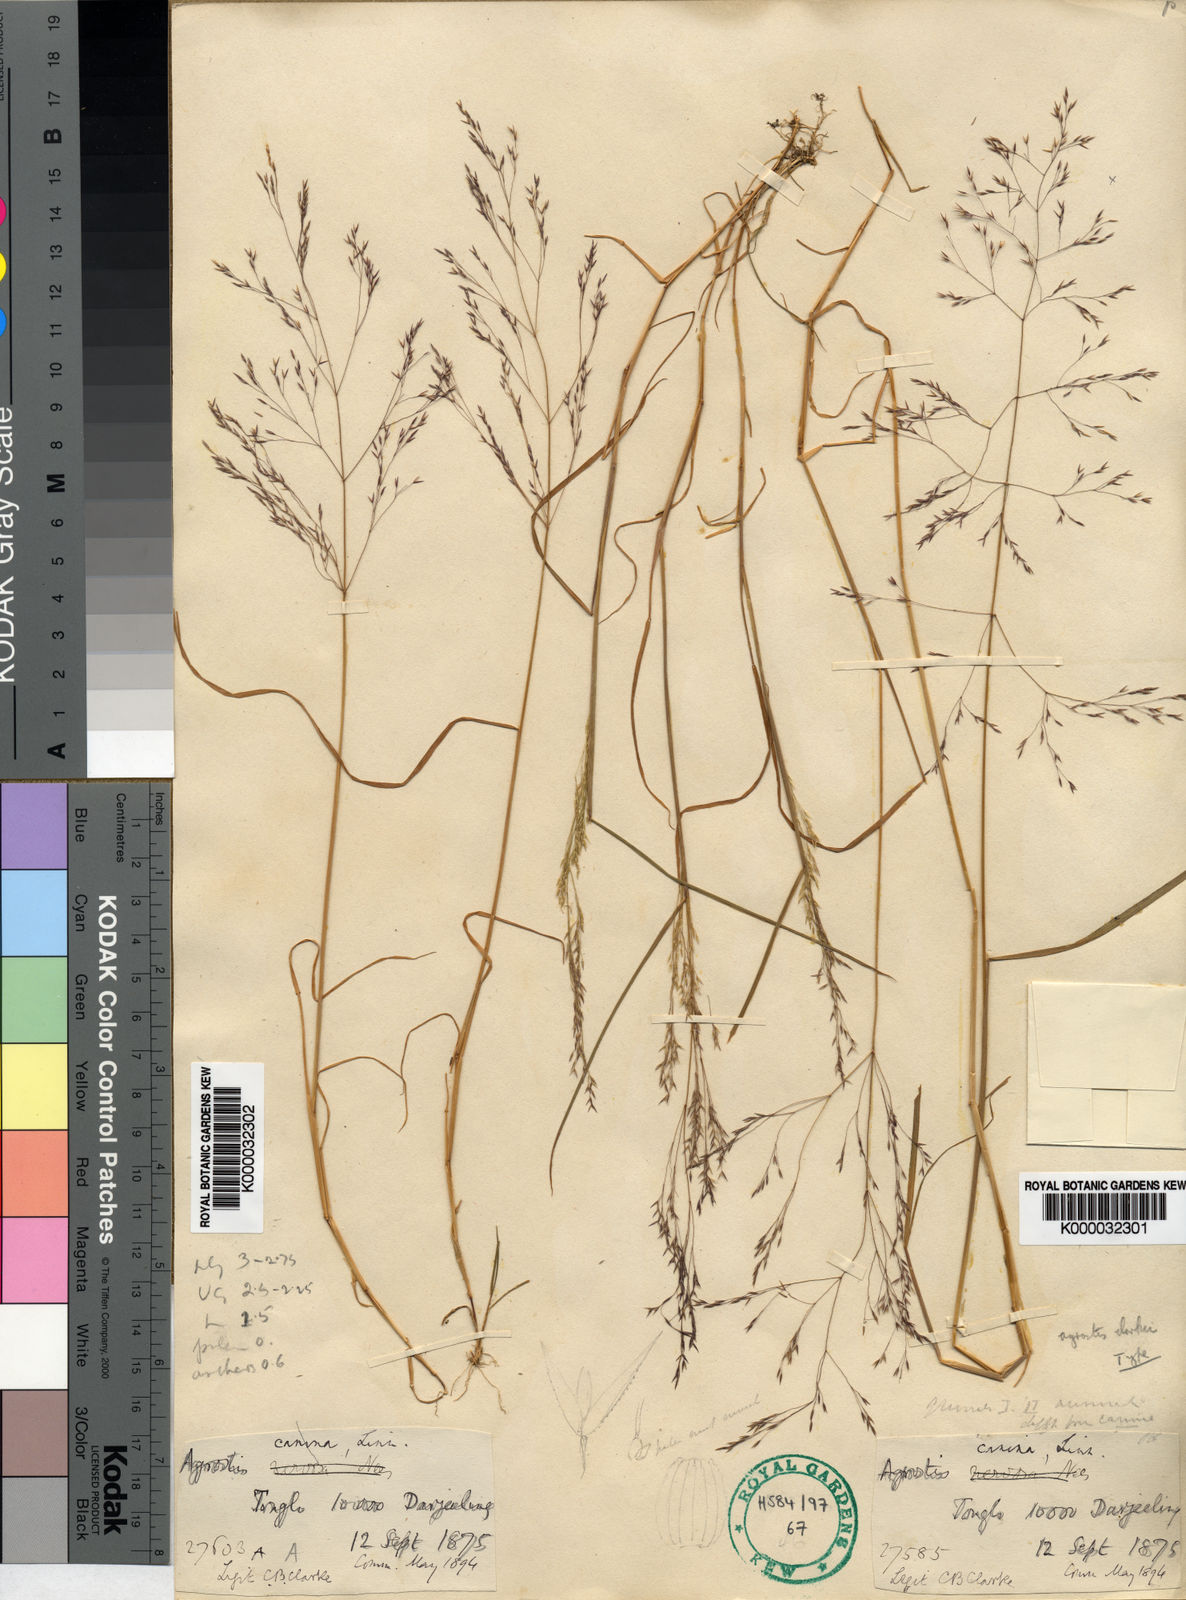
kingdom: Plantae
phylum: Tracheophyta
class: Liliopsida
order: Poales
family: Poaceae
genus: Agrostis
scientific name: Agrostis nervosa
